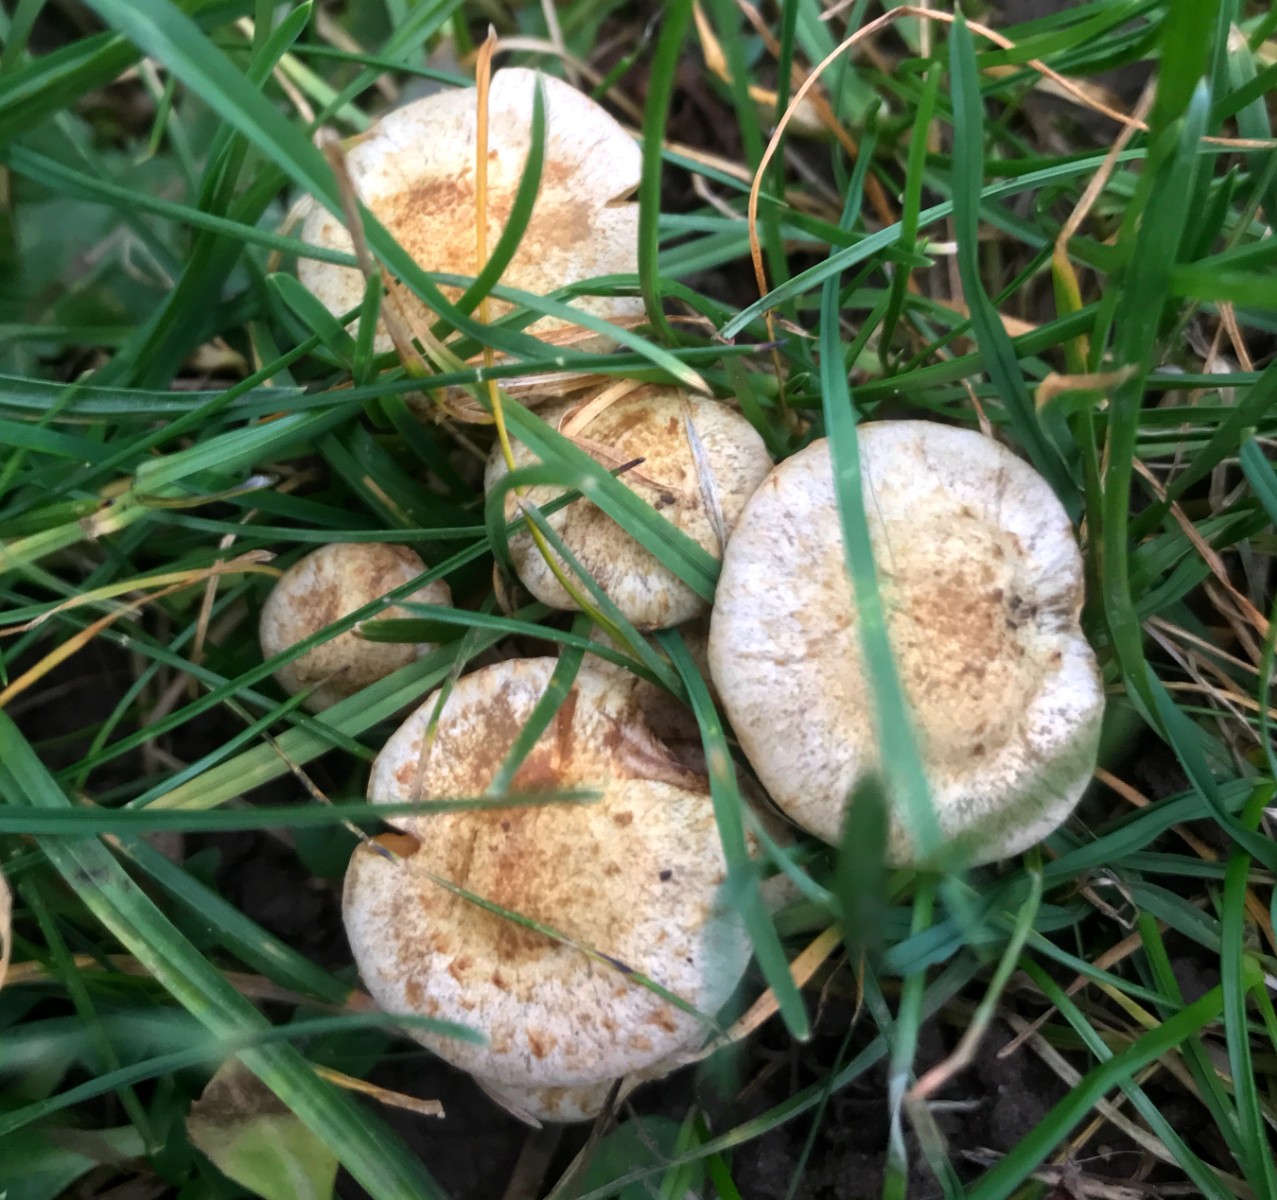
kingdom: Fungi
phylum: Basidiomycota
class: Agaricomycetes
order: Agaricales
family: Strophariaceae
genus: Pholiota
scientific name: Pholiota gummosa
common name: grøngul skælhat
